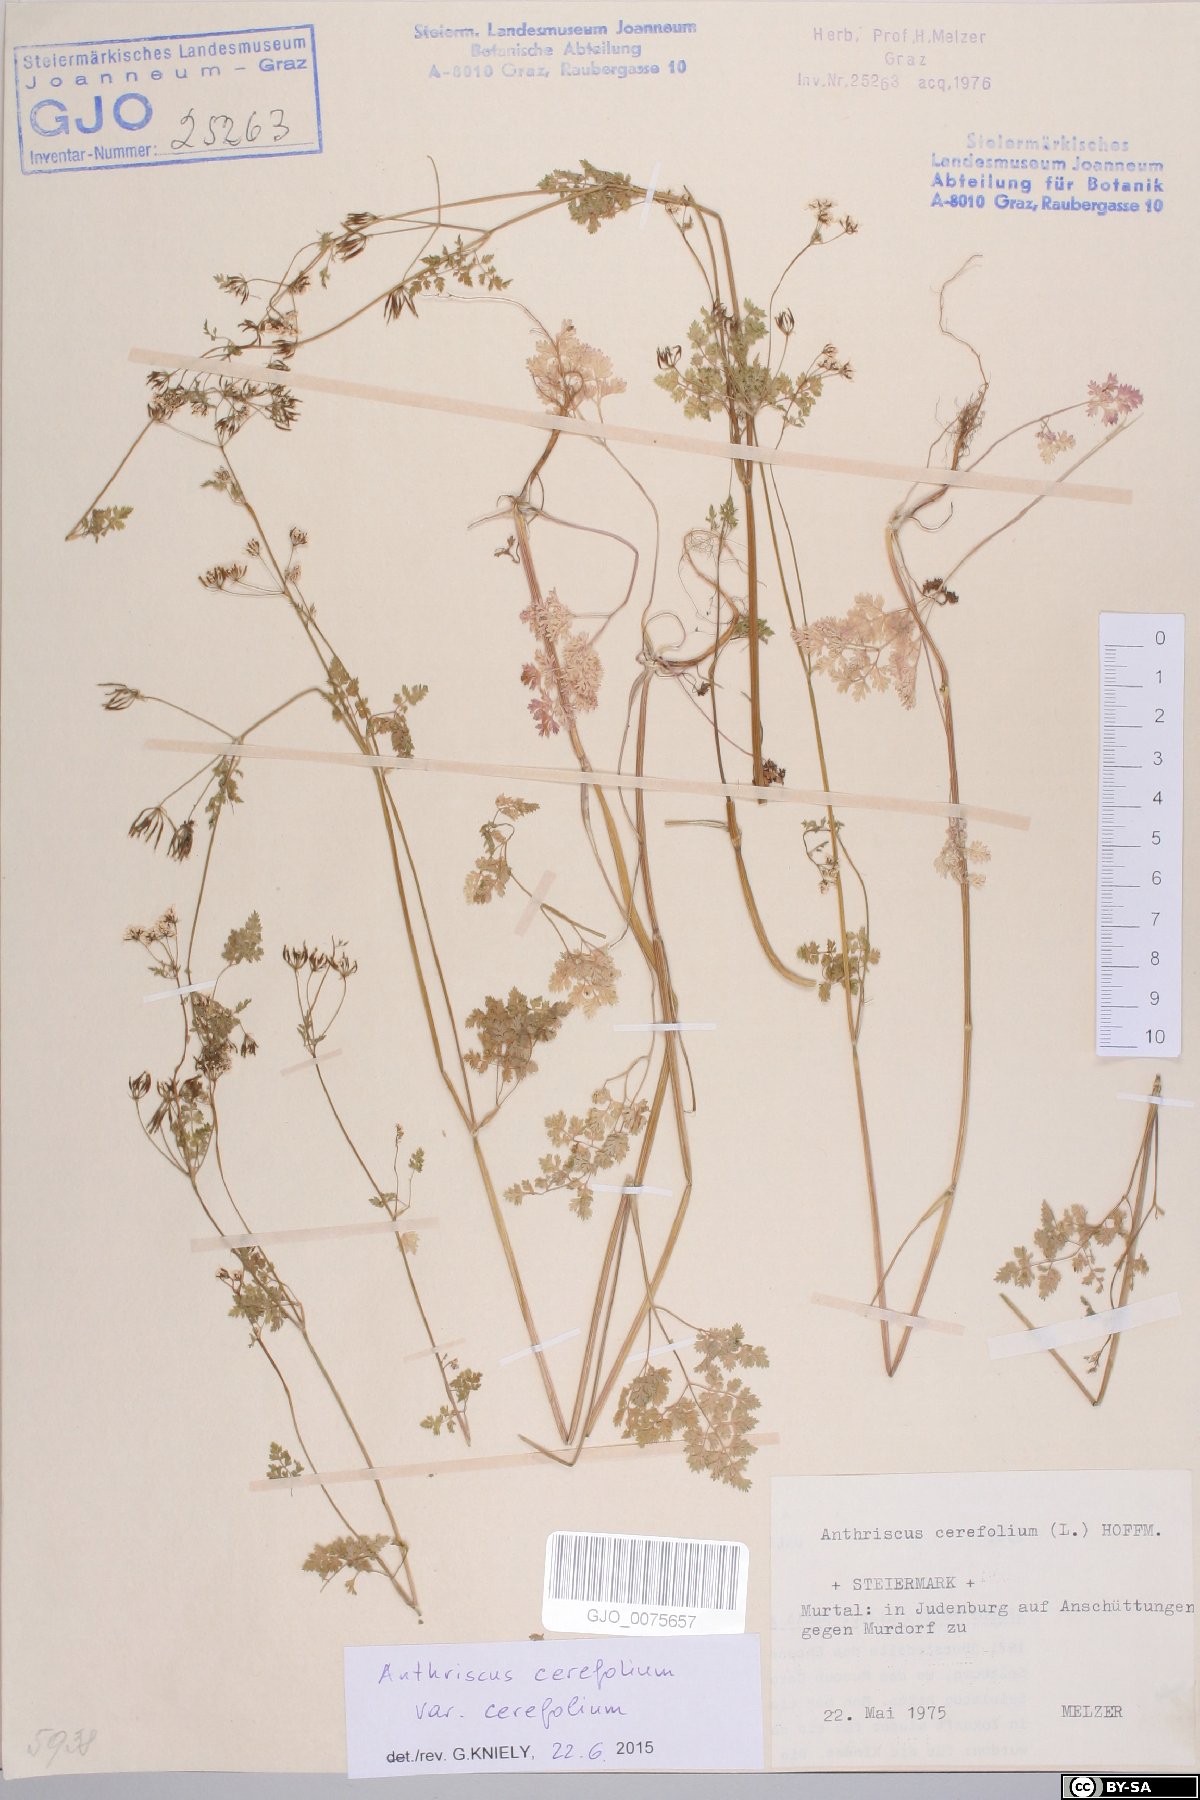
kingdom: Plantae
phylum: Tracheophyta
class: Magnoliopsida
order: Apiales
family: Apiaceae
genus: Anthriscus
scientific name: Anthriscus cerefolium
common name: Garden chervil
